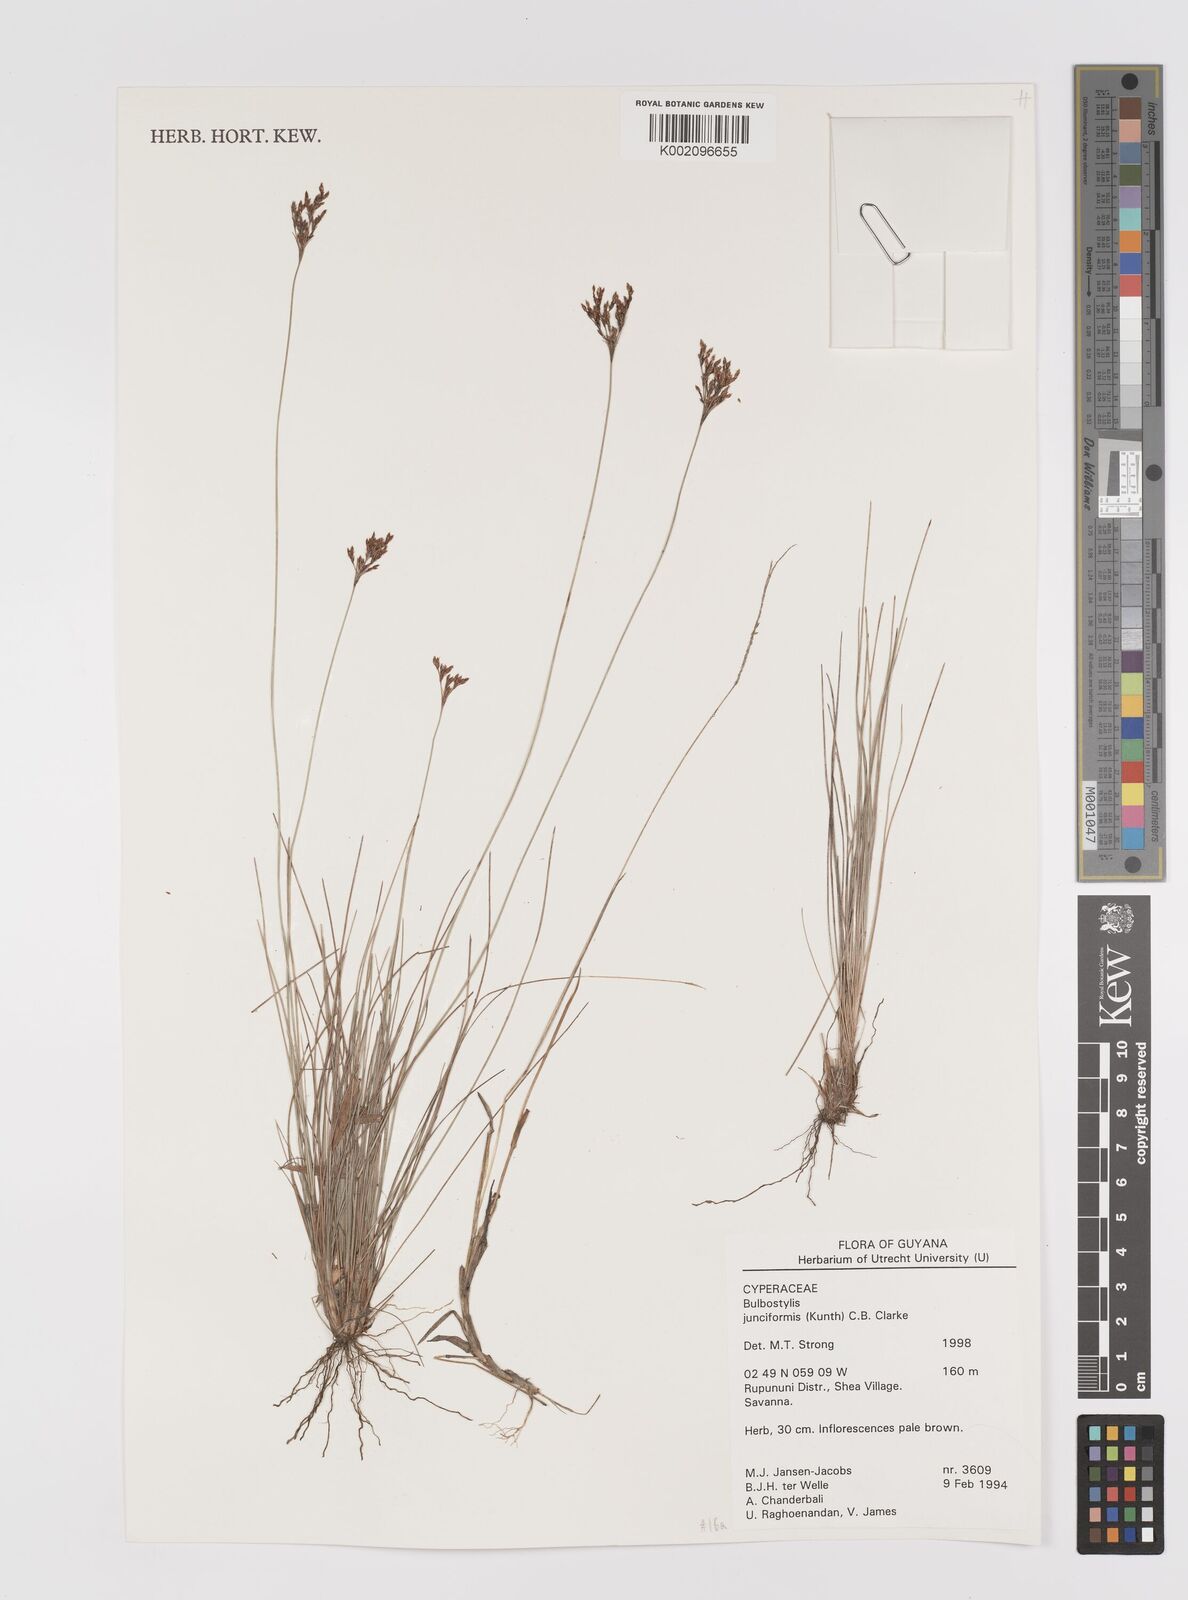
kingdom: Plantae
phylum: Tracheophyta
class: Liliopsida
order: Poales
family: Cyperaceae
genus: Bulbostylis
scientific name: Bulbostylis junciformis
